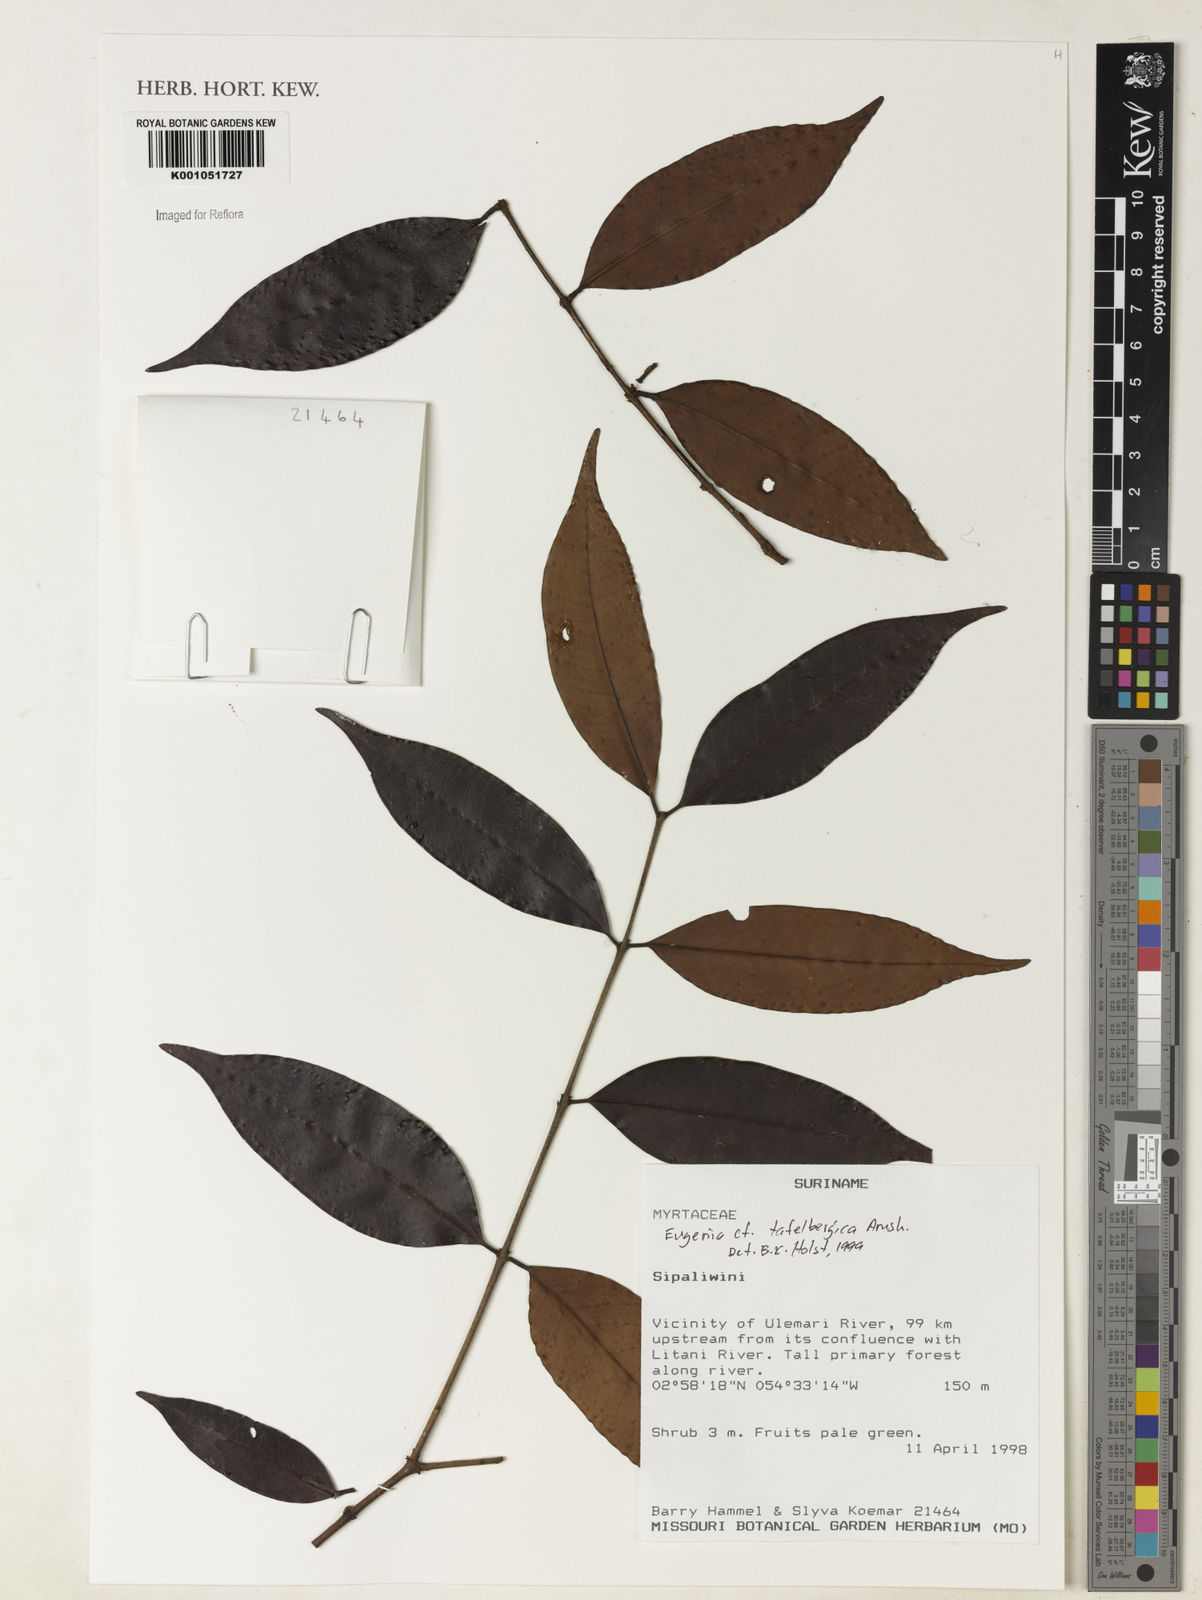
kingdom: Plantae
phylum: Tracheophyta
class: Magnoliopsida
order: Myrtales
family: Myrtaceae
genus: Eugenia
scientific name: Eugenia tafelbergica
